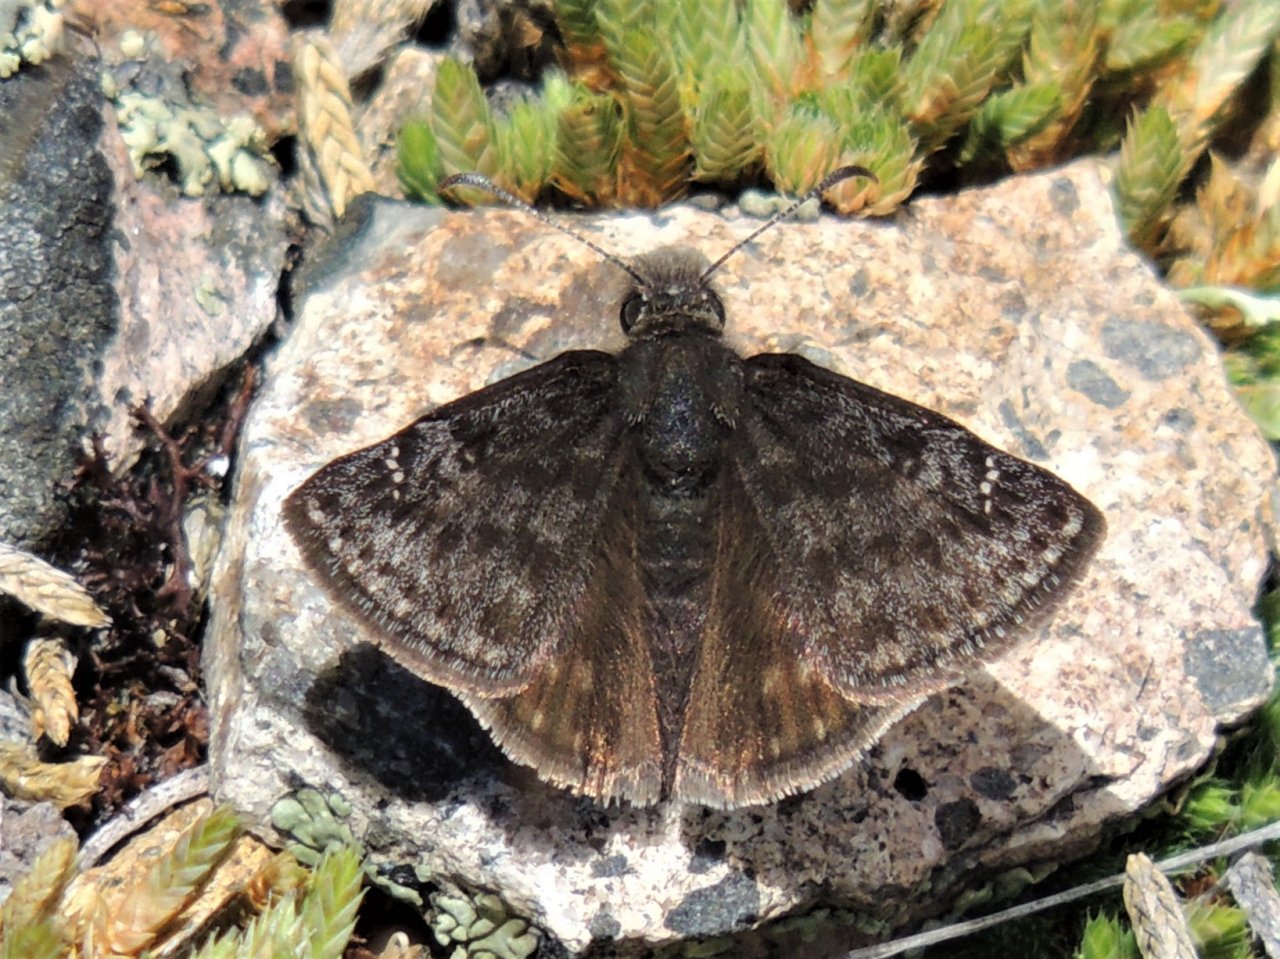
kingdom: Animalia
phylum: Arthropoda
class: Insecta
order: Lepidoptera
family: Hesperiidae
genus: Gesta
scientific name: Gesta
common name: Persius Duskywing
